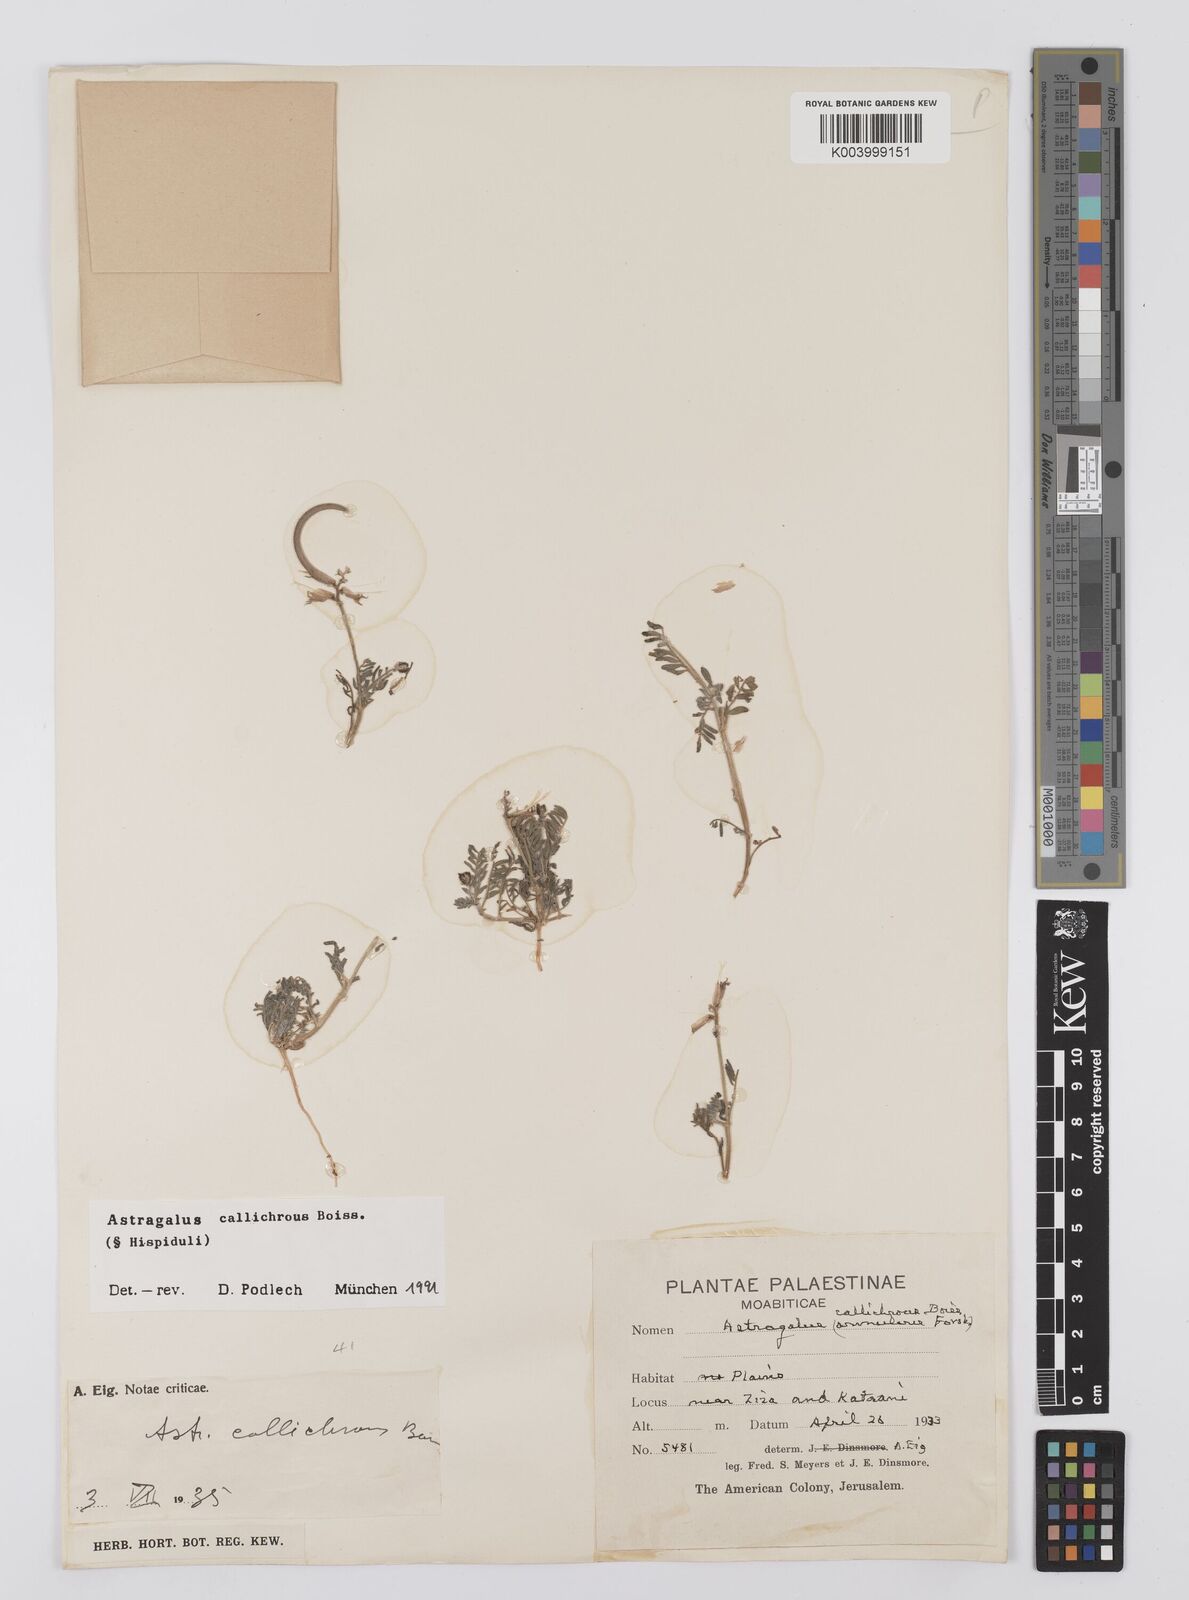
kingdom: Plantae
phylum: Tracheophyta
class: Magnoliopsida
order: Fabales
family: Fabaceae
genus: Astragalus
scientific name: Astragalus callichrous
